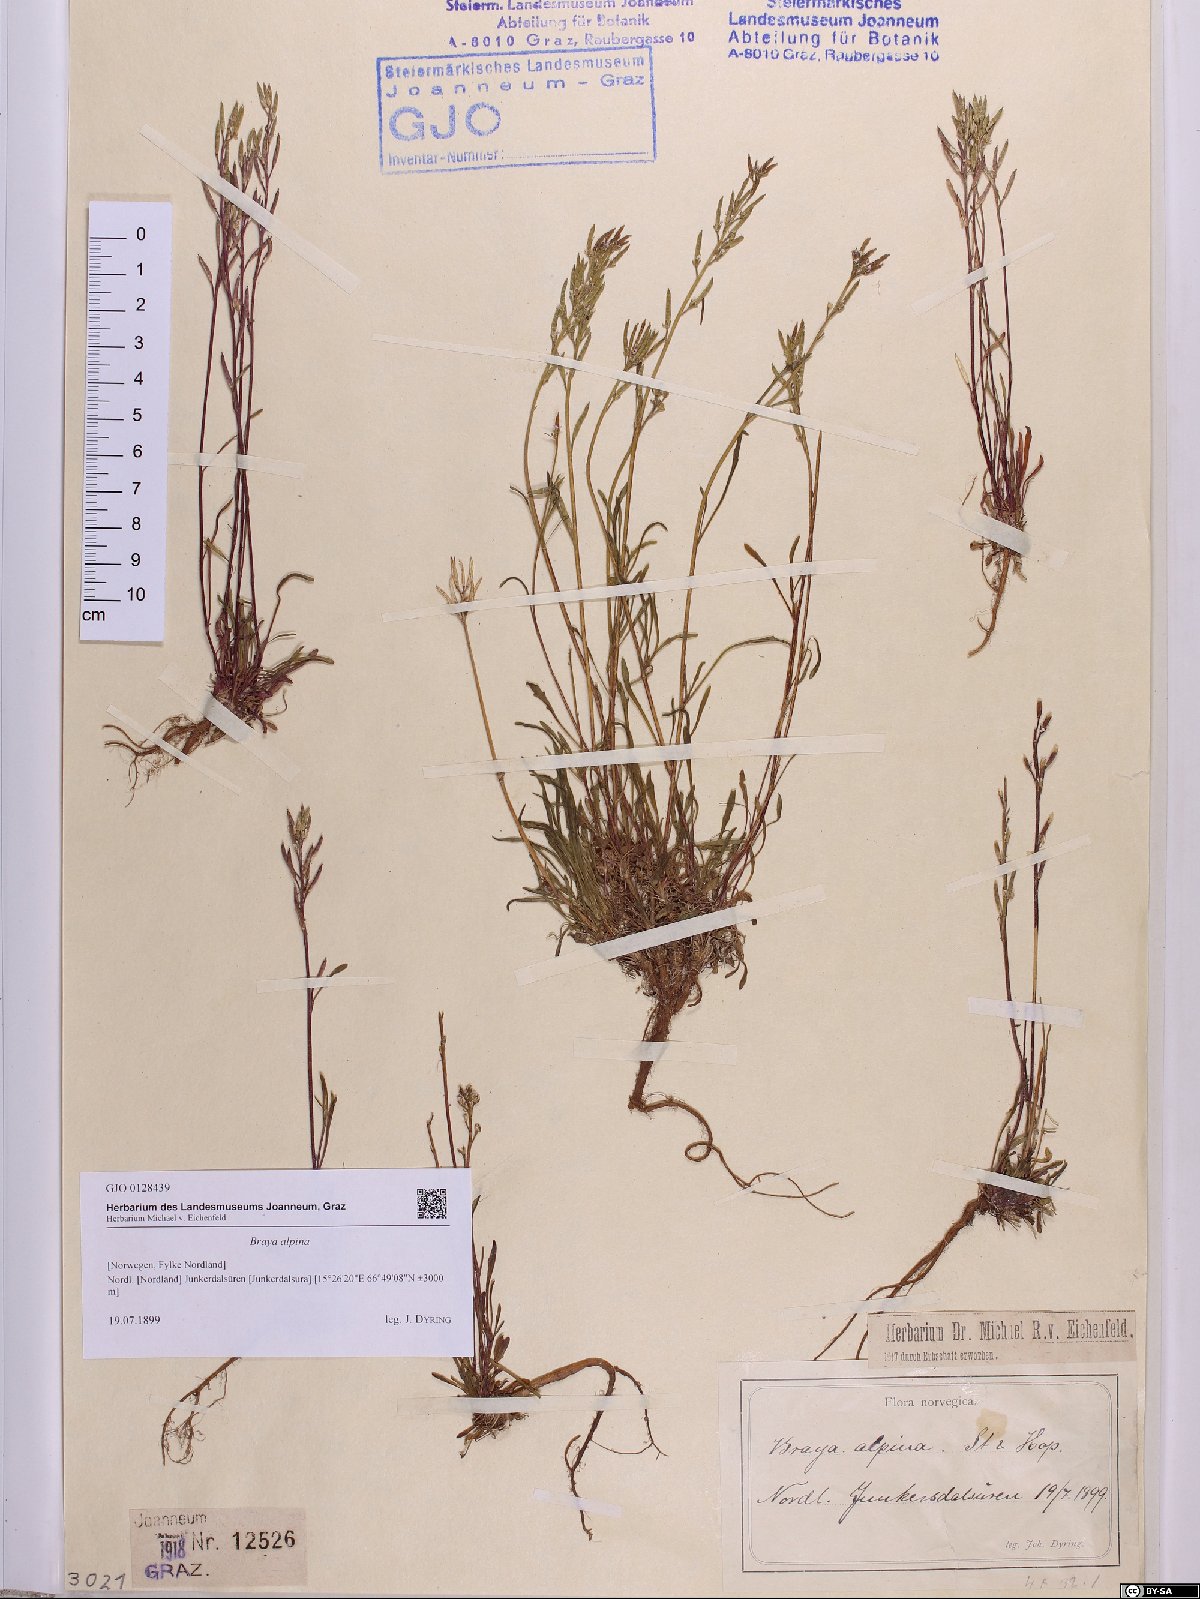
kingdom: Plantae
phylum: Tracheophyta
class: Magnoliopsida
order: Brassicales
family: Brassicaceae
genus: Braya
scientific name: Braya alpina
